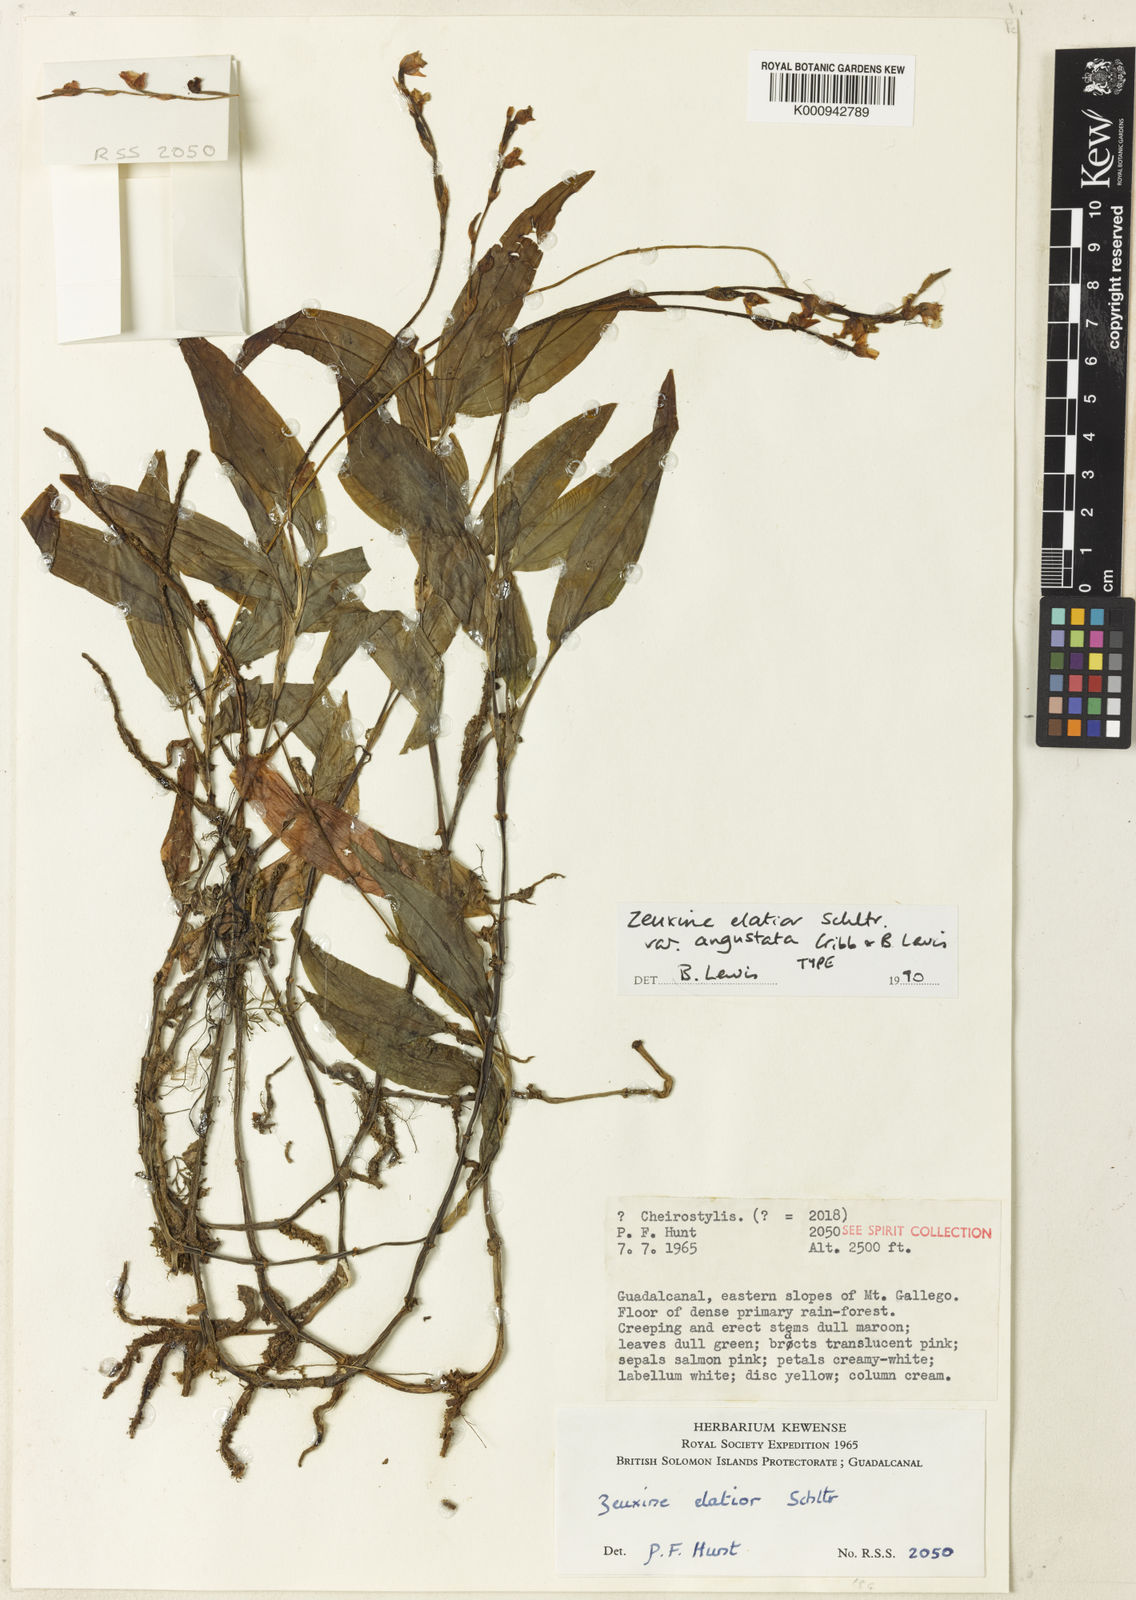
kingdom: Plantae
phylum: Tracheophyta
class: Liliopsida
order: Asparagales
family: Orchidaceae
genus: Zeuxine
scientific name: Zeuxine diversifolia
